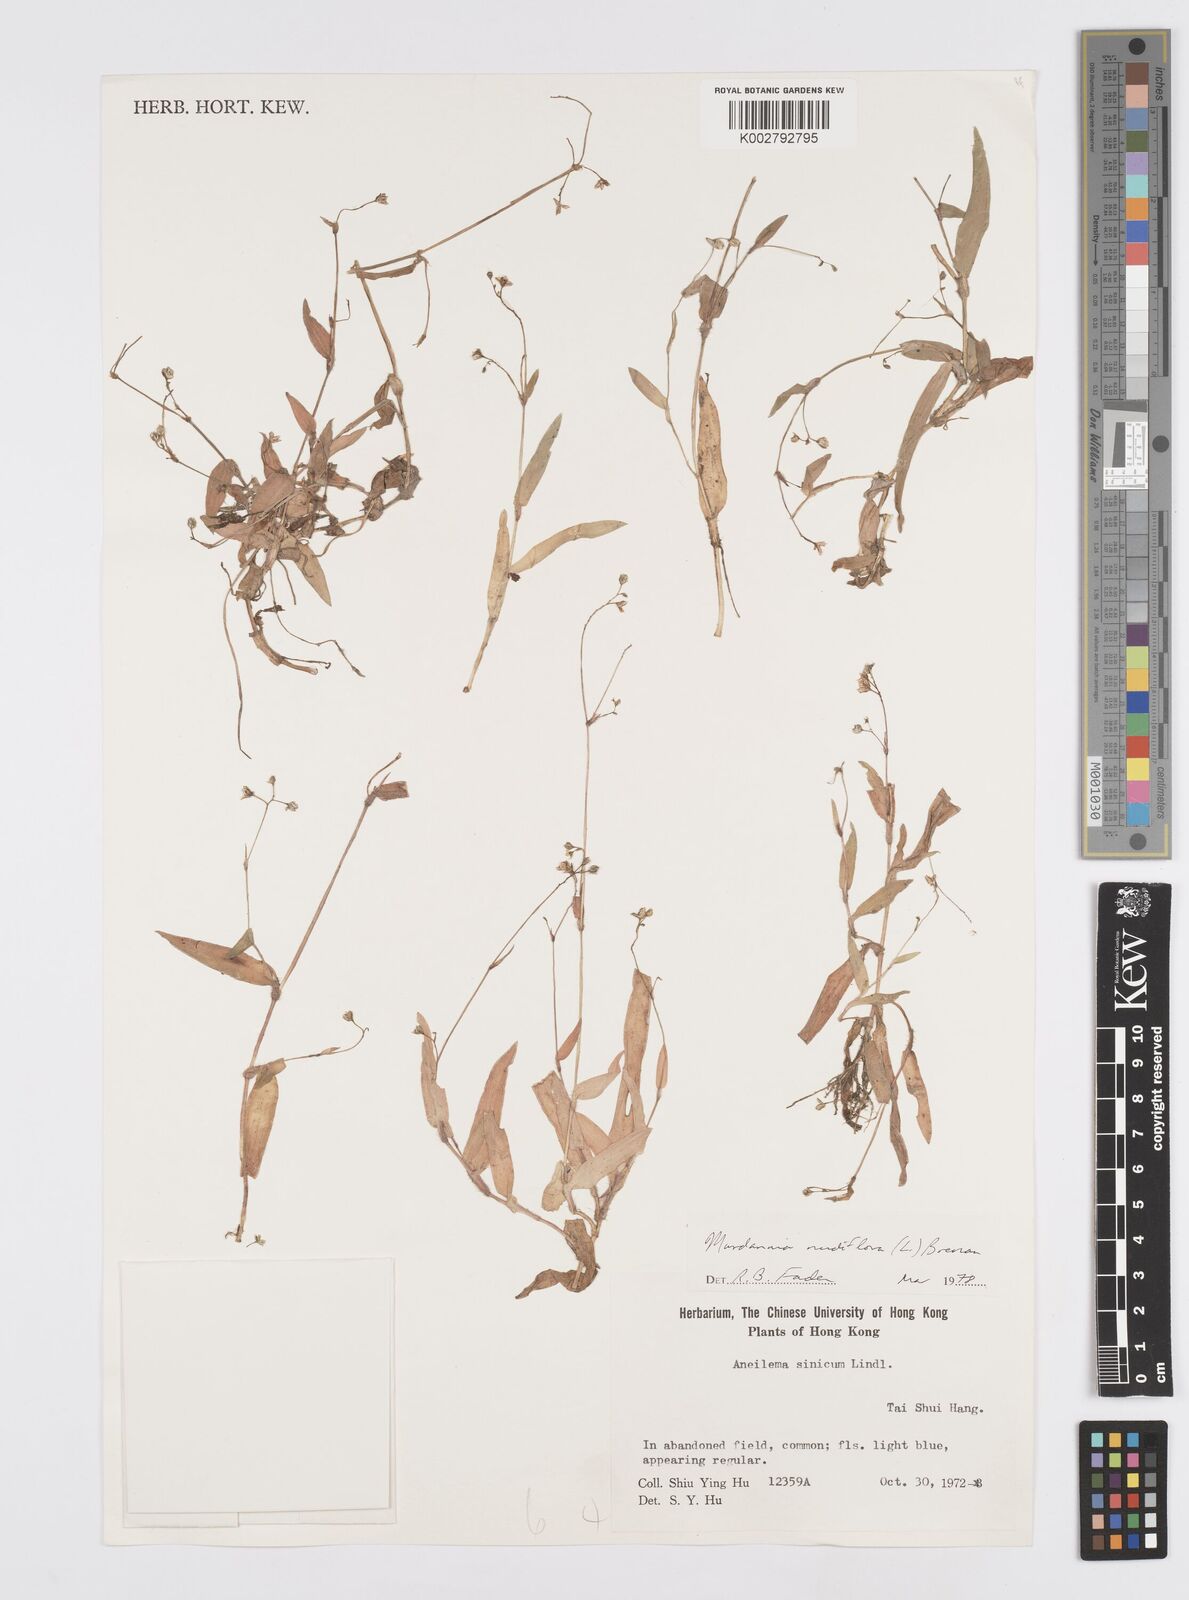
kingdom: Plantae
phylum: Tracheophyta
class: Liliopsida
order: Commelinales
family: Commelinaceae
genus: Murdannia
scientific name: Murdannia nudiflora
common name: Nakedstem dewflower
